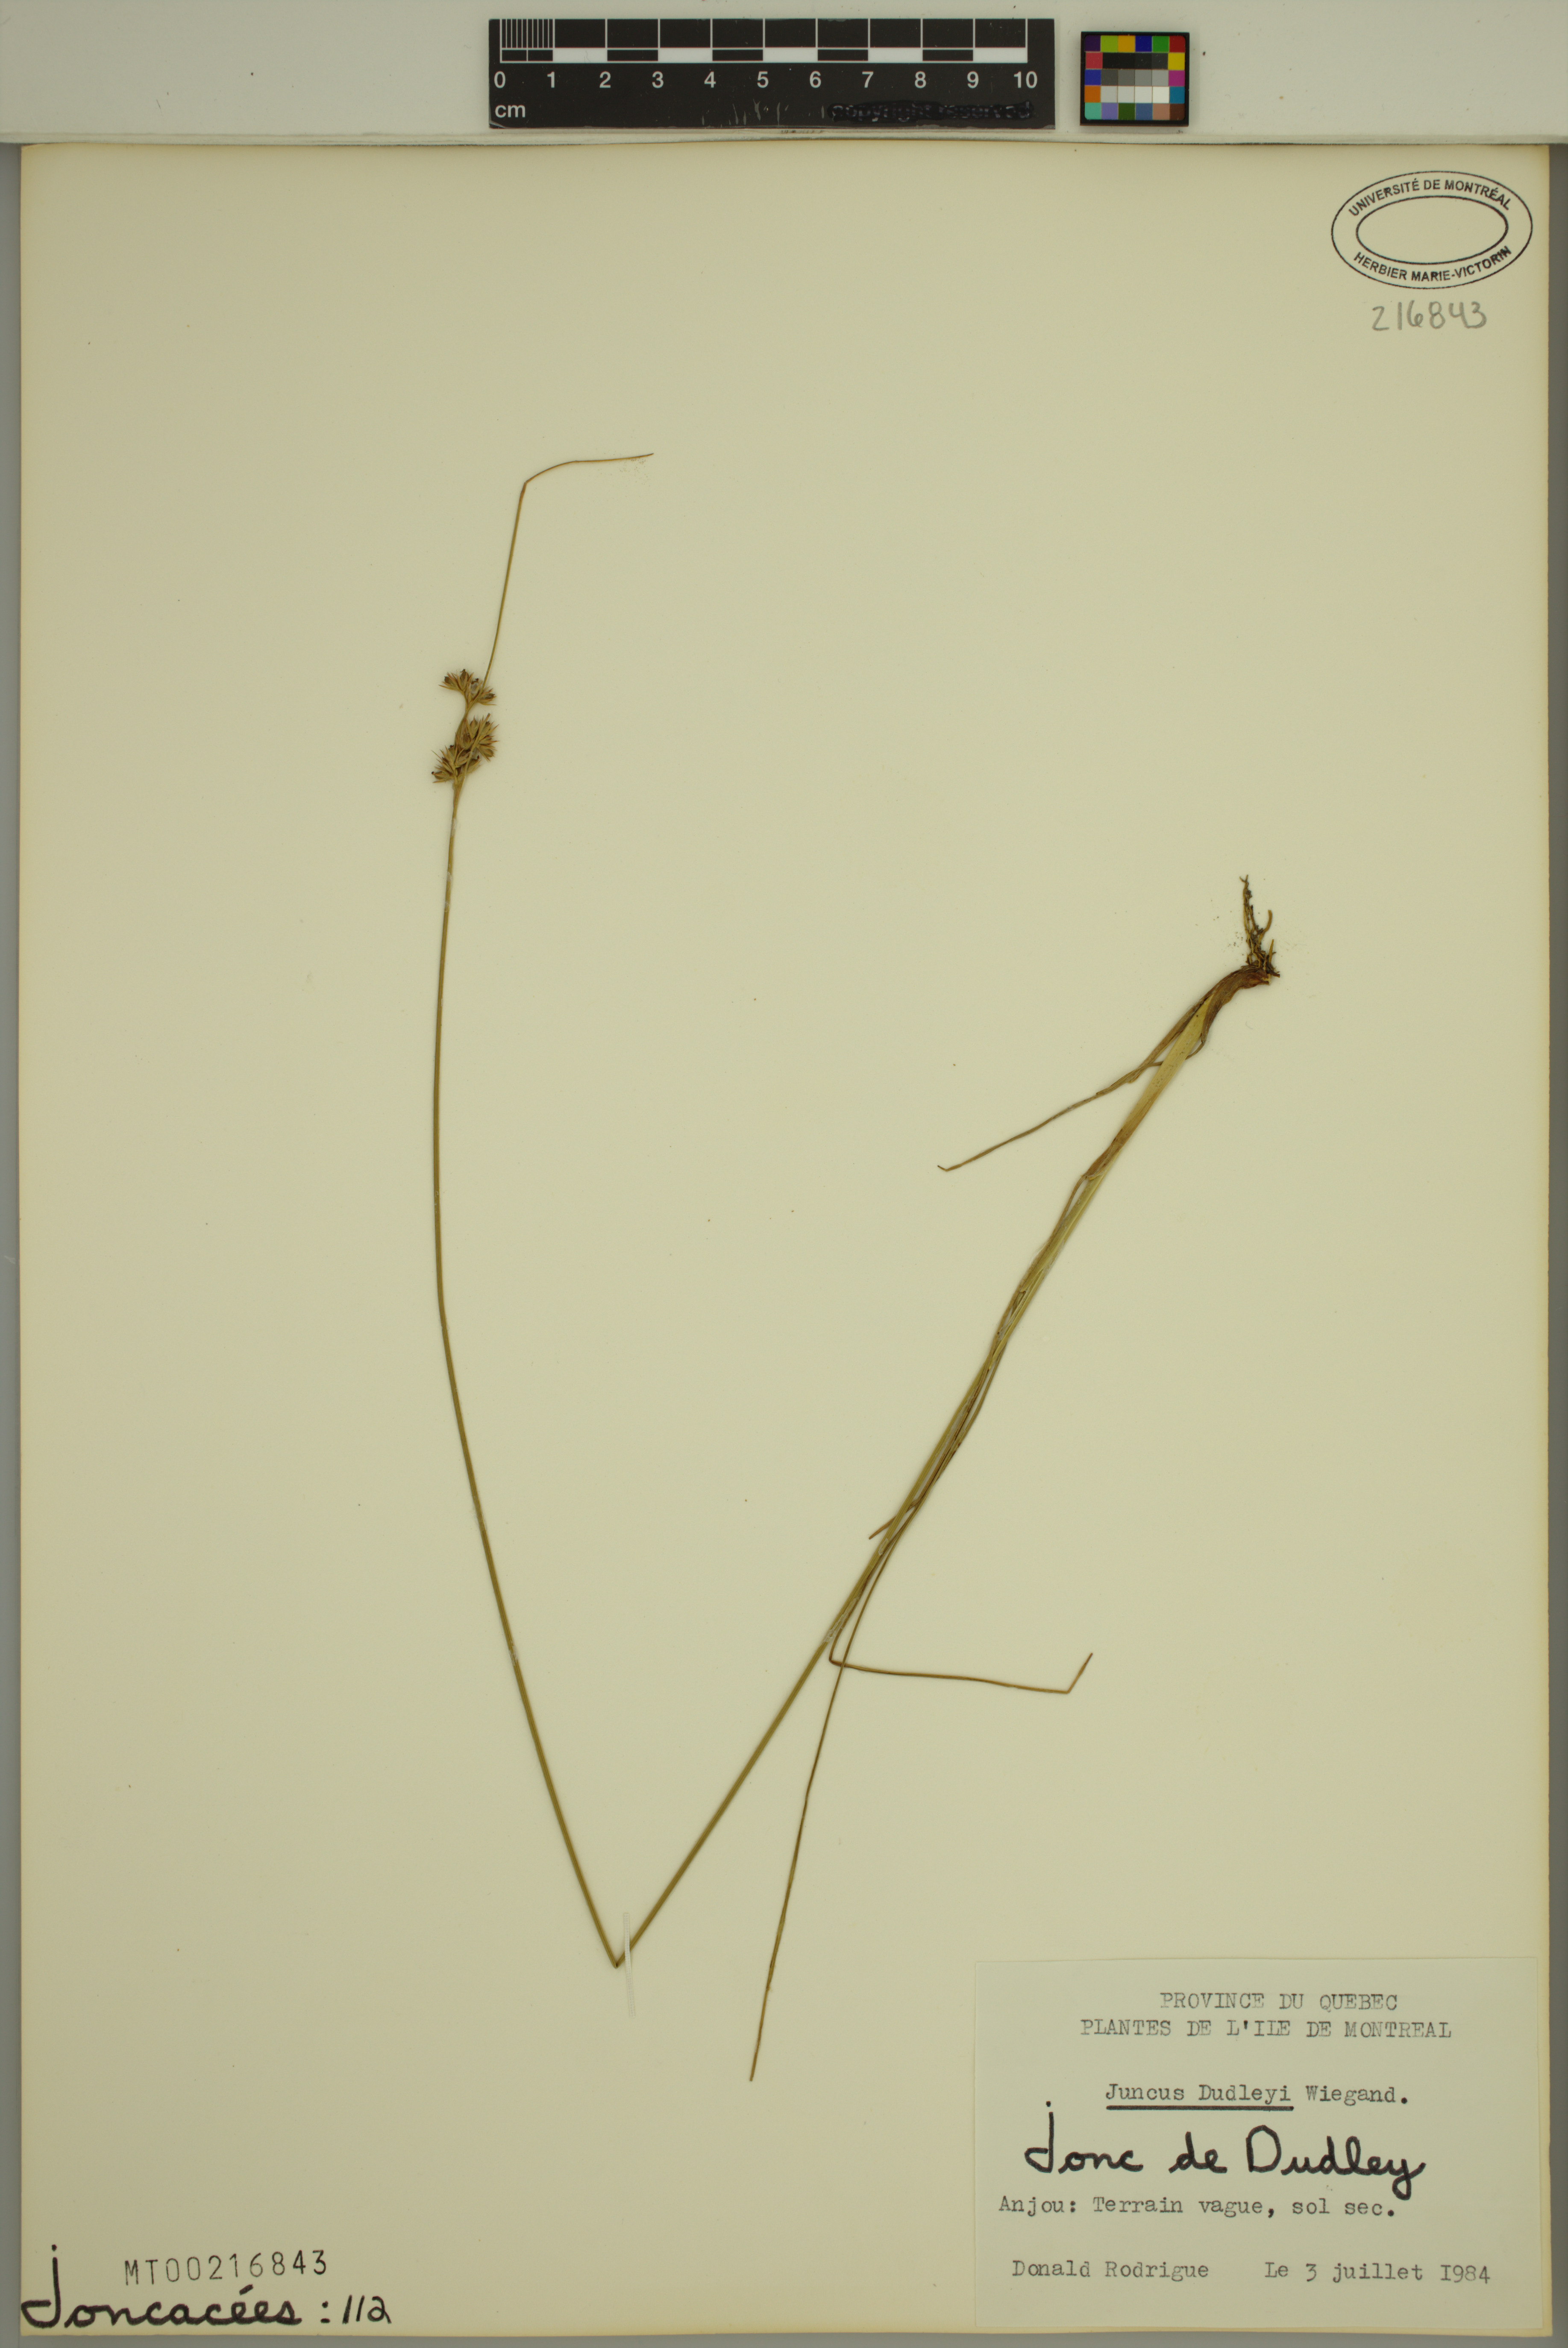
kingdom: Plantae
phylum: Tracheophyta
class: Liliopsida
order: Poales
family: Juncaceae
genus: Juncus
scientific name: Juncus dudleyi
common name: Dudley's rush
